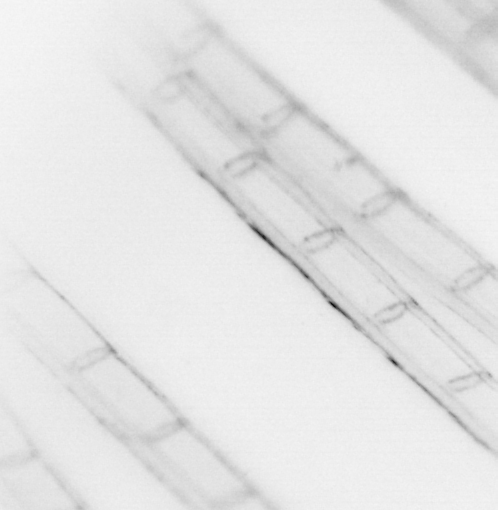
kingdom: Animalia
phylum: Chordata
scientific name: Chordata
